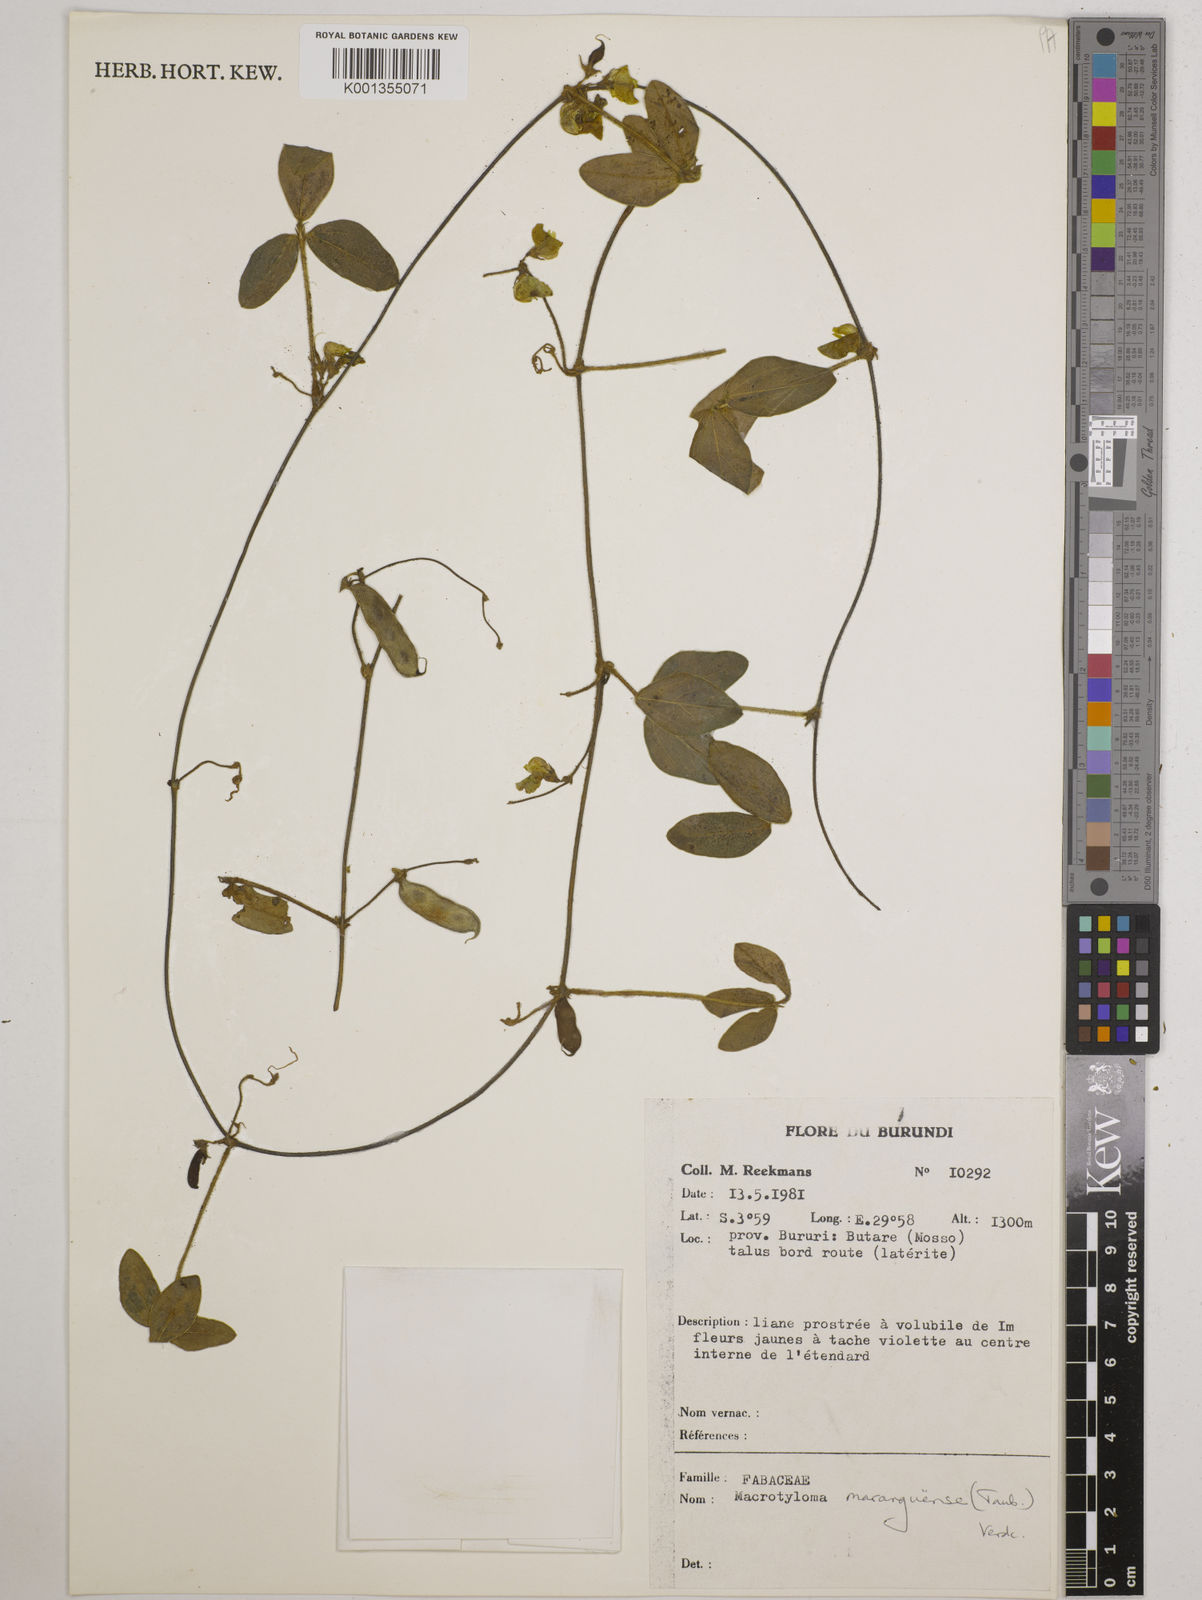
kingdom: Plantae
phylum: Tracheophyta
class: Magnoliopsida
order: Fabales
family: Fabaceae
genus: Macrotyloma
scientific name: Macrotyloma maranguense
